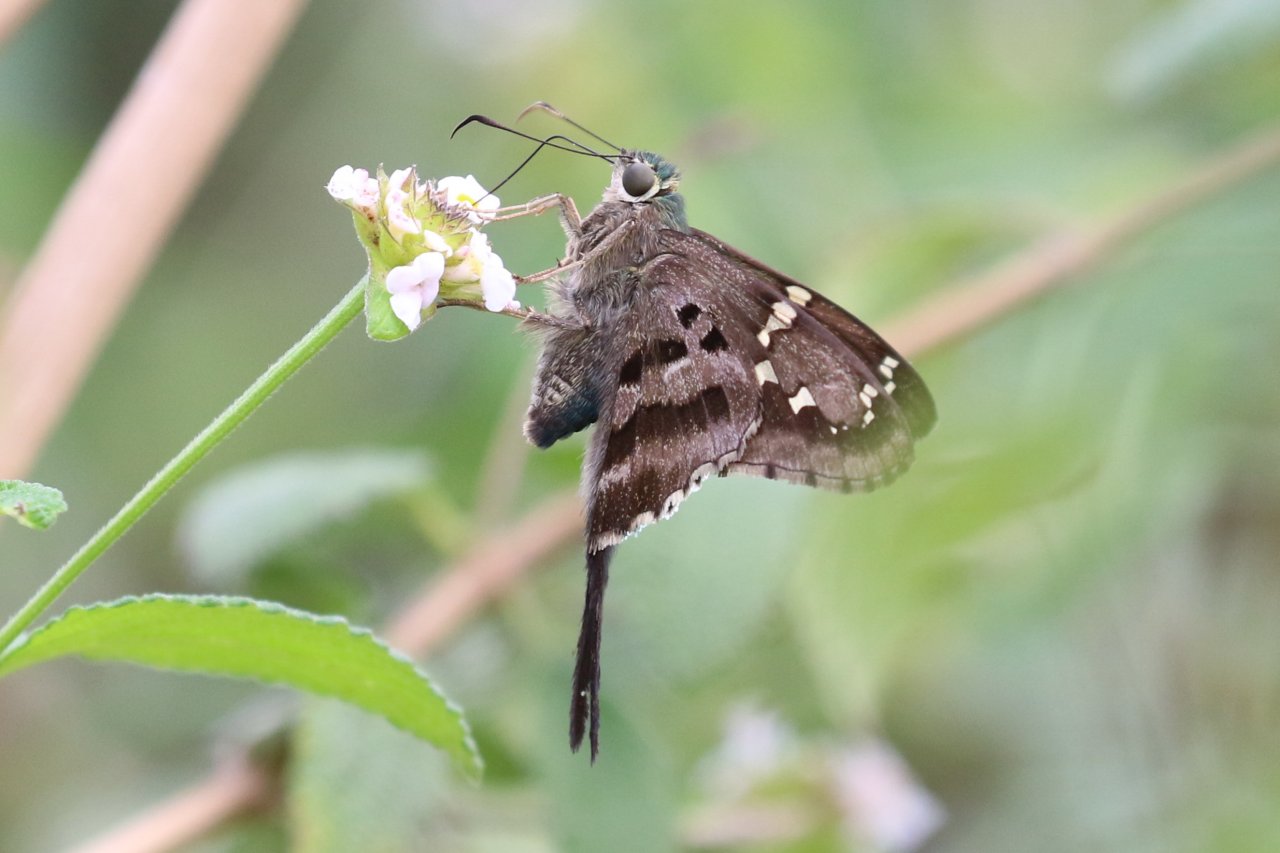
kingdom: Animalia
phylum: Arthropoda
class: Insecta
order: Lepidoptera
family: Hesperiidae
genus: Urbanus
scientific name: Urbanus proteus
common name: Long-tailed Skipper
